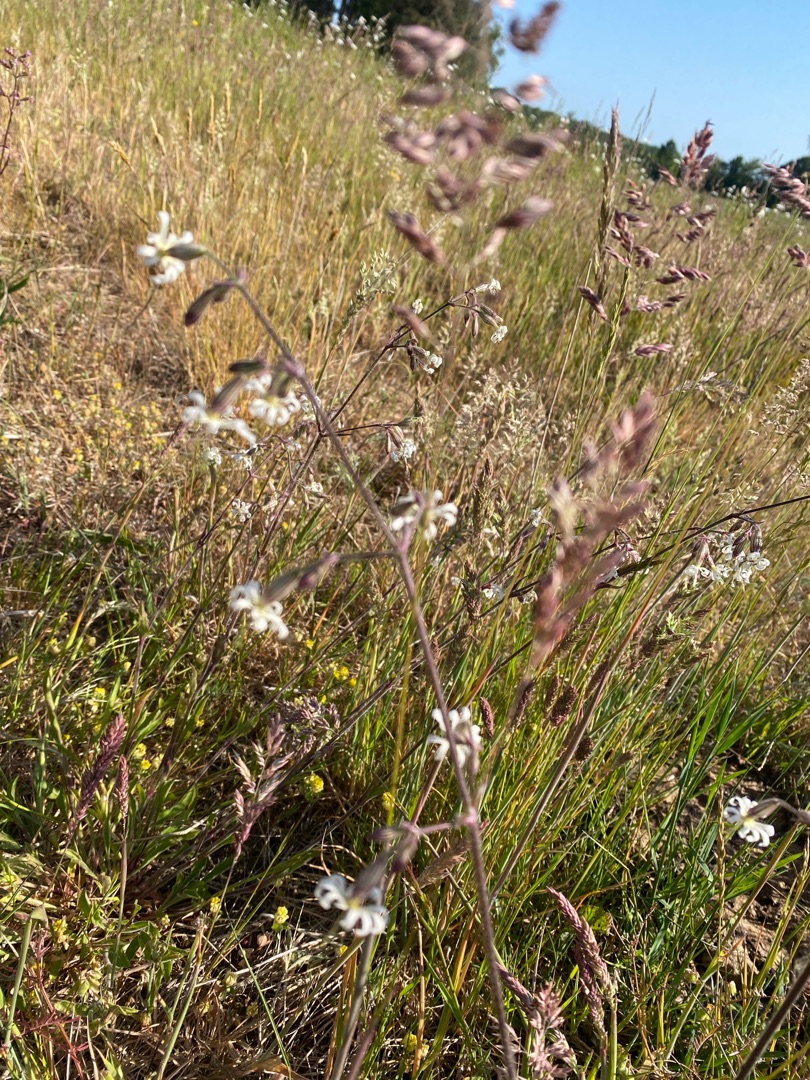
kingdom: Plantae
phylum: Tracheophyta
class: Magnoliopsida
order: Caryophyllales
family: Caryophyllaceae
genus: Silene
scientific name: Silene nutans
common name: Nikkende limurt
